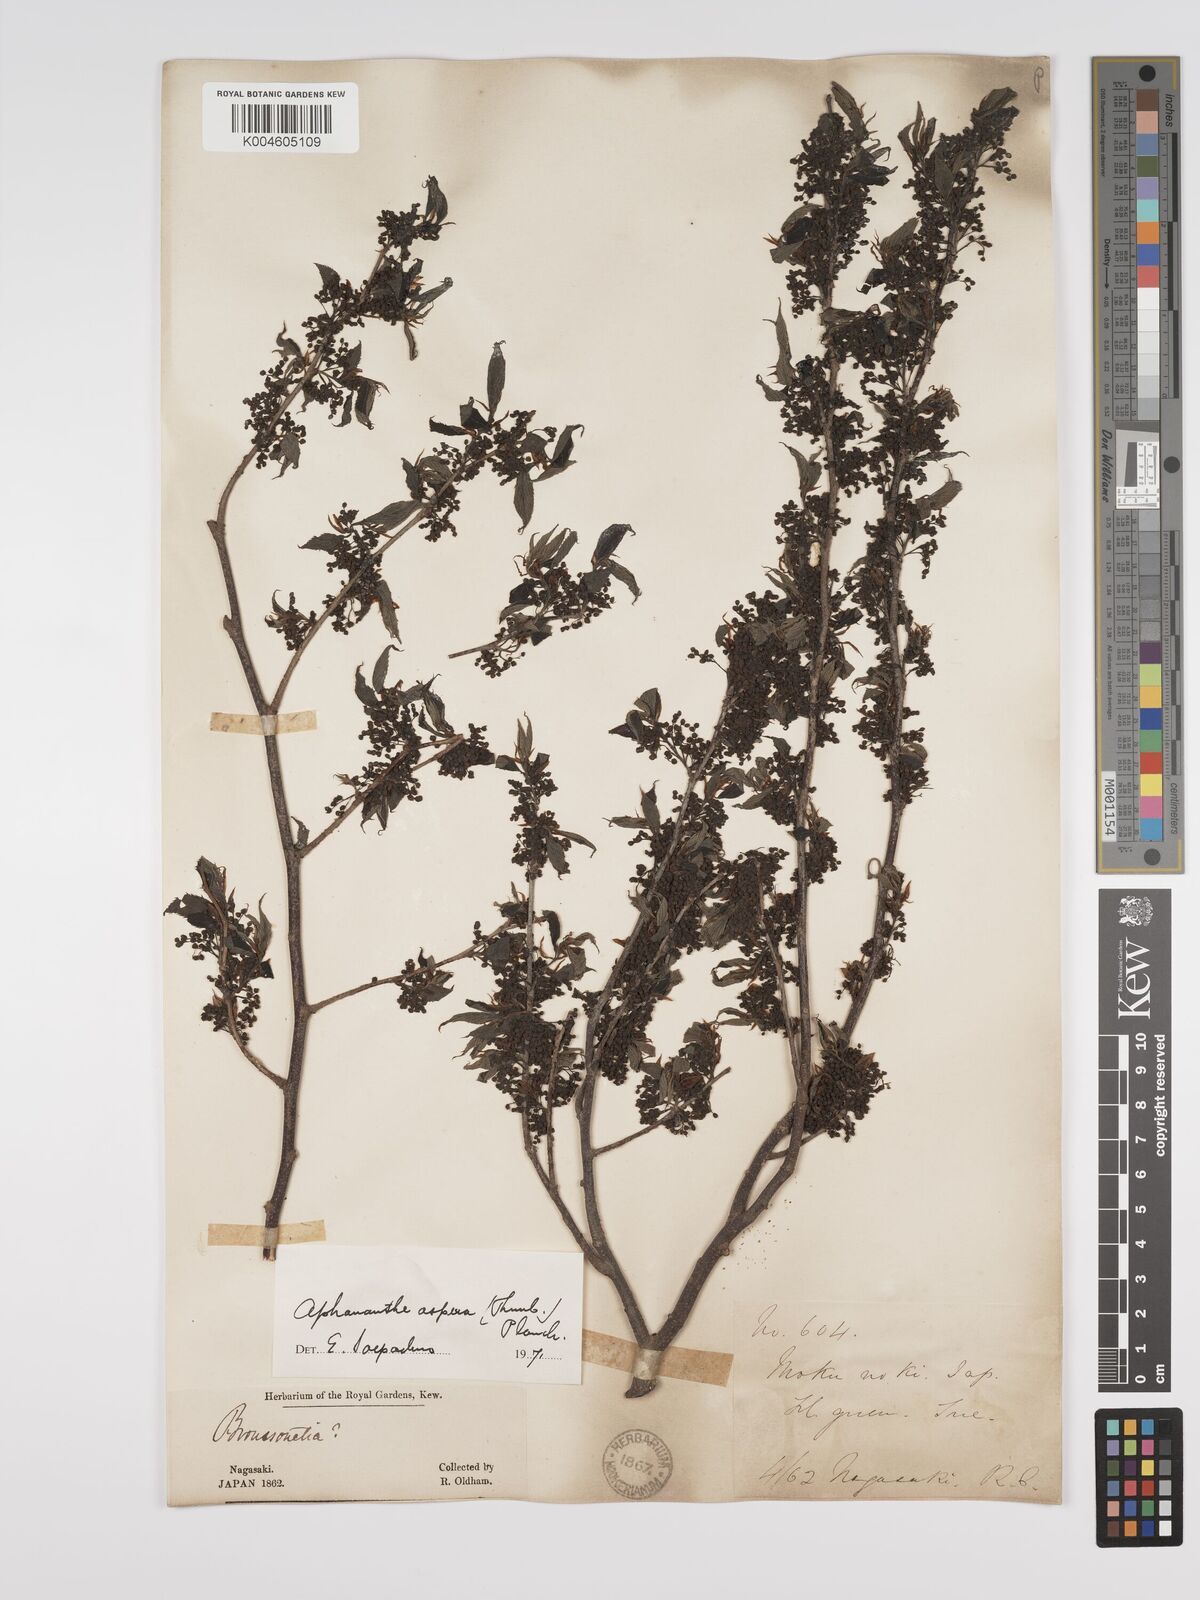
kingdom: Plantae
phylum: Tracheophyta
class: Magnoliopsida
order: Rosales
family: Cannabaceae
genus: Aphananthe
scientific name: Aphananthe aspera
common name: Mukutree
